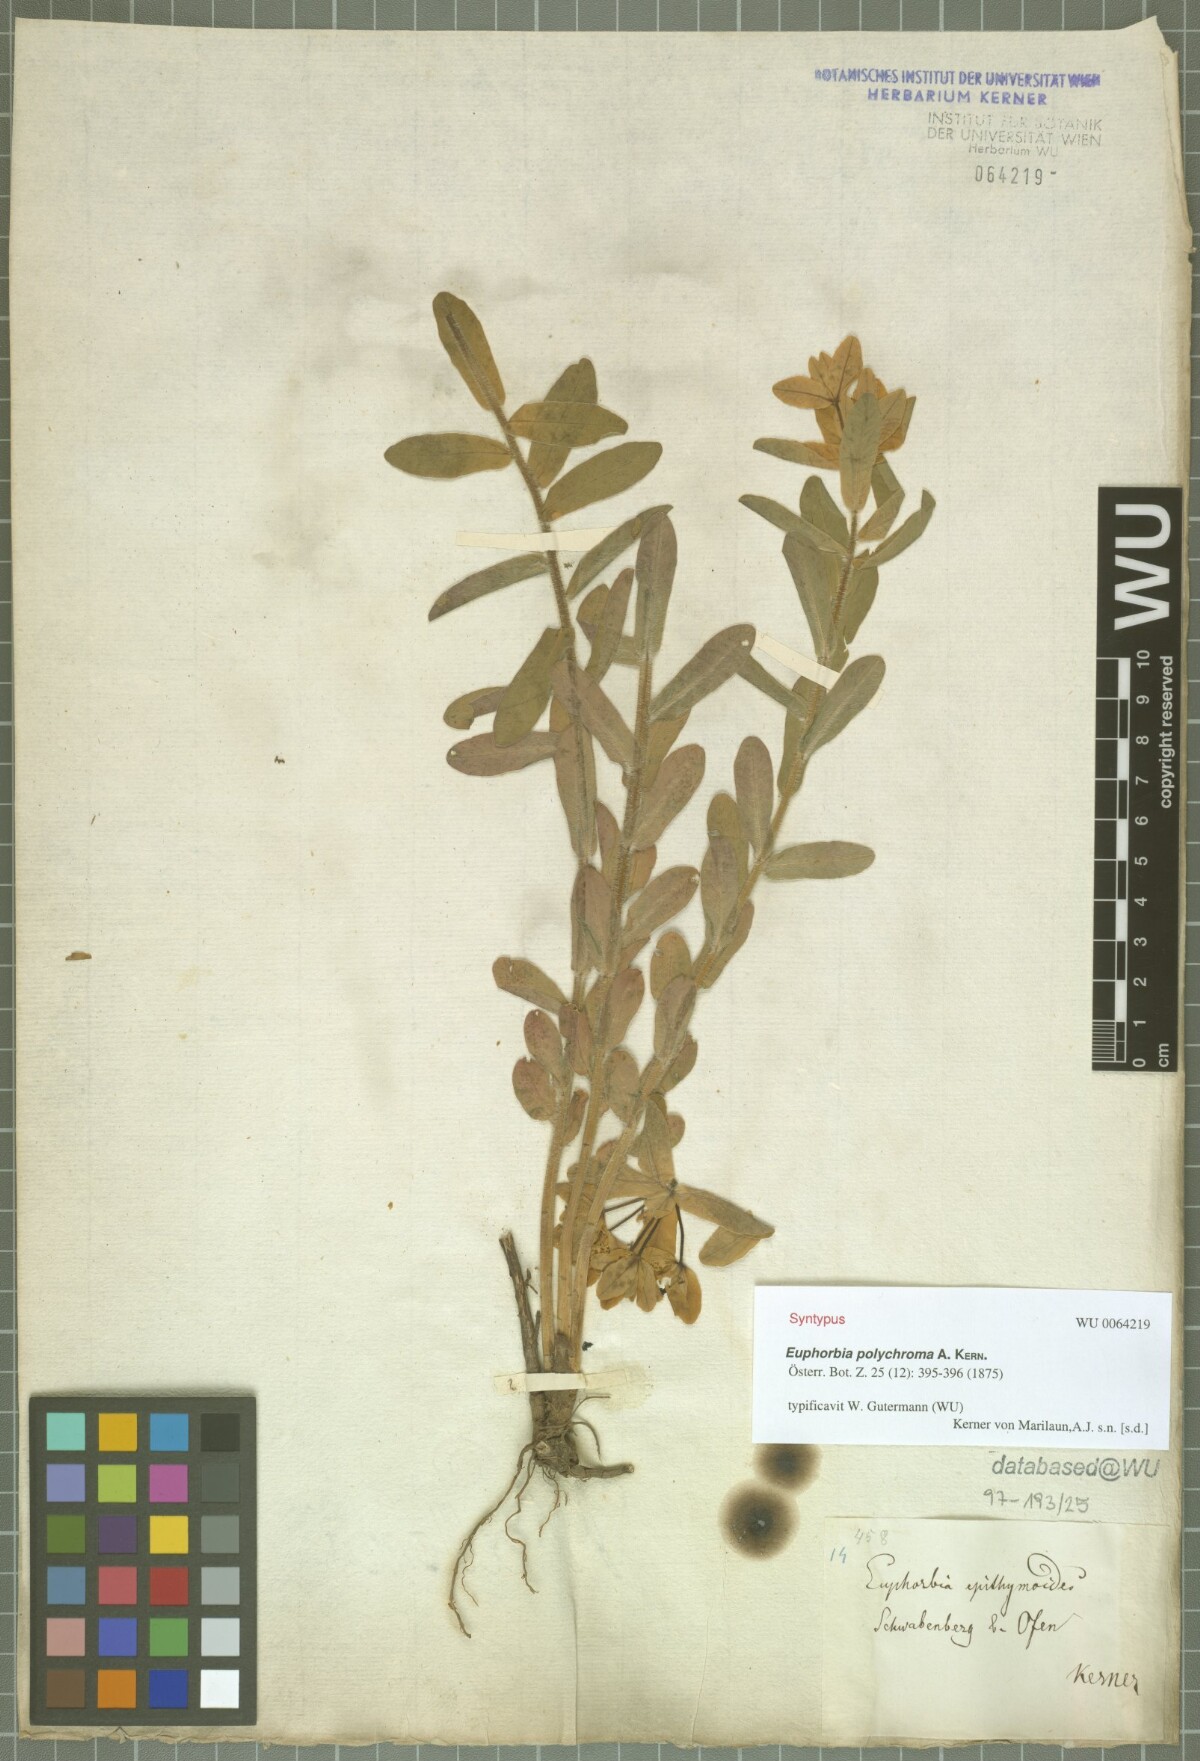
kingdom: Plantae
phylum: Tracheophyta
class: Magnoliopsida
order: Malpighiales
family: Euphorbiaceae
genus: Euphorbia
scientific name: Euphorbia epithymoides
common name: Cushion spurge
